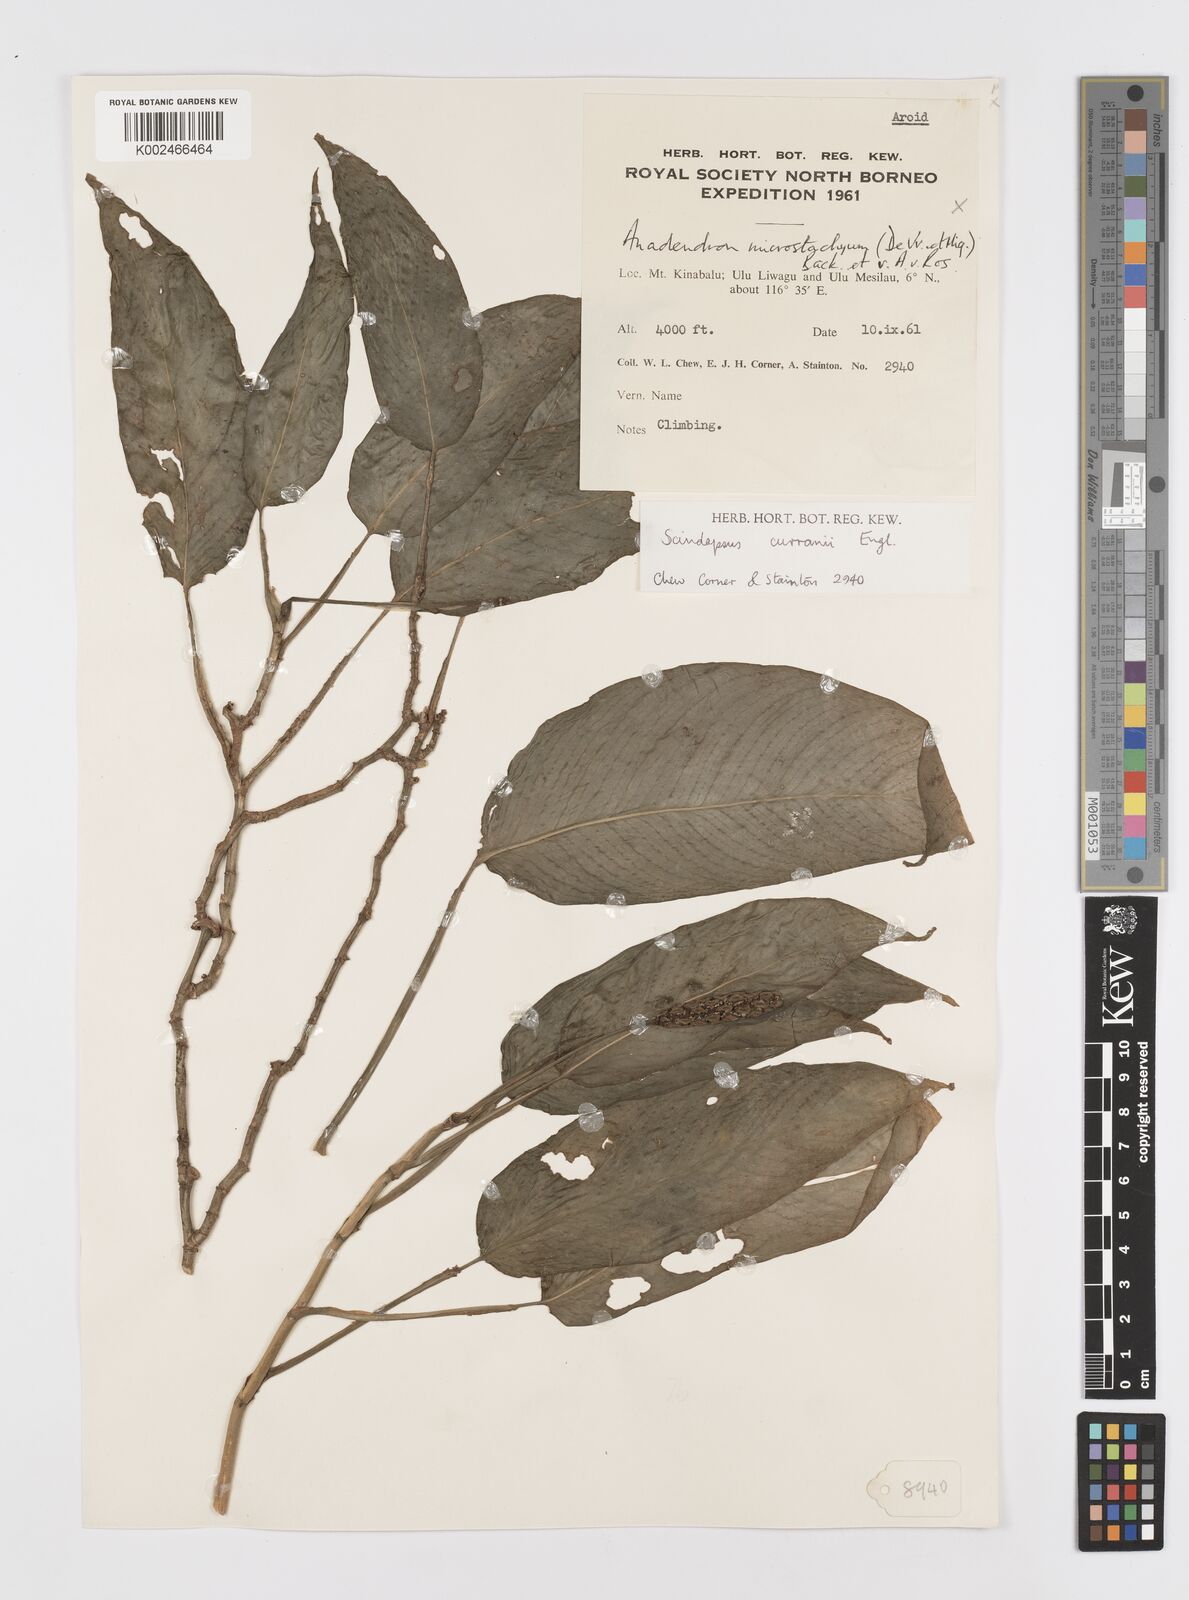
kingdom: Plantae
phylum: Tracheophyta
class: Liliopsida
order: Alismatales
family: Araceae
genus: Scindapsus
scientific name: Scindapsus curranii
